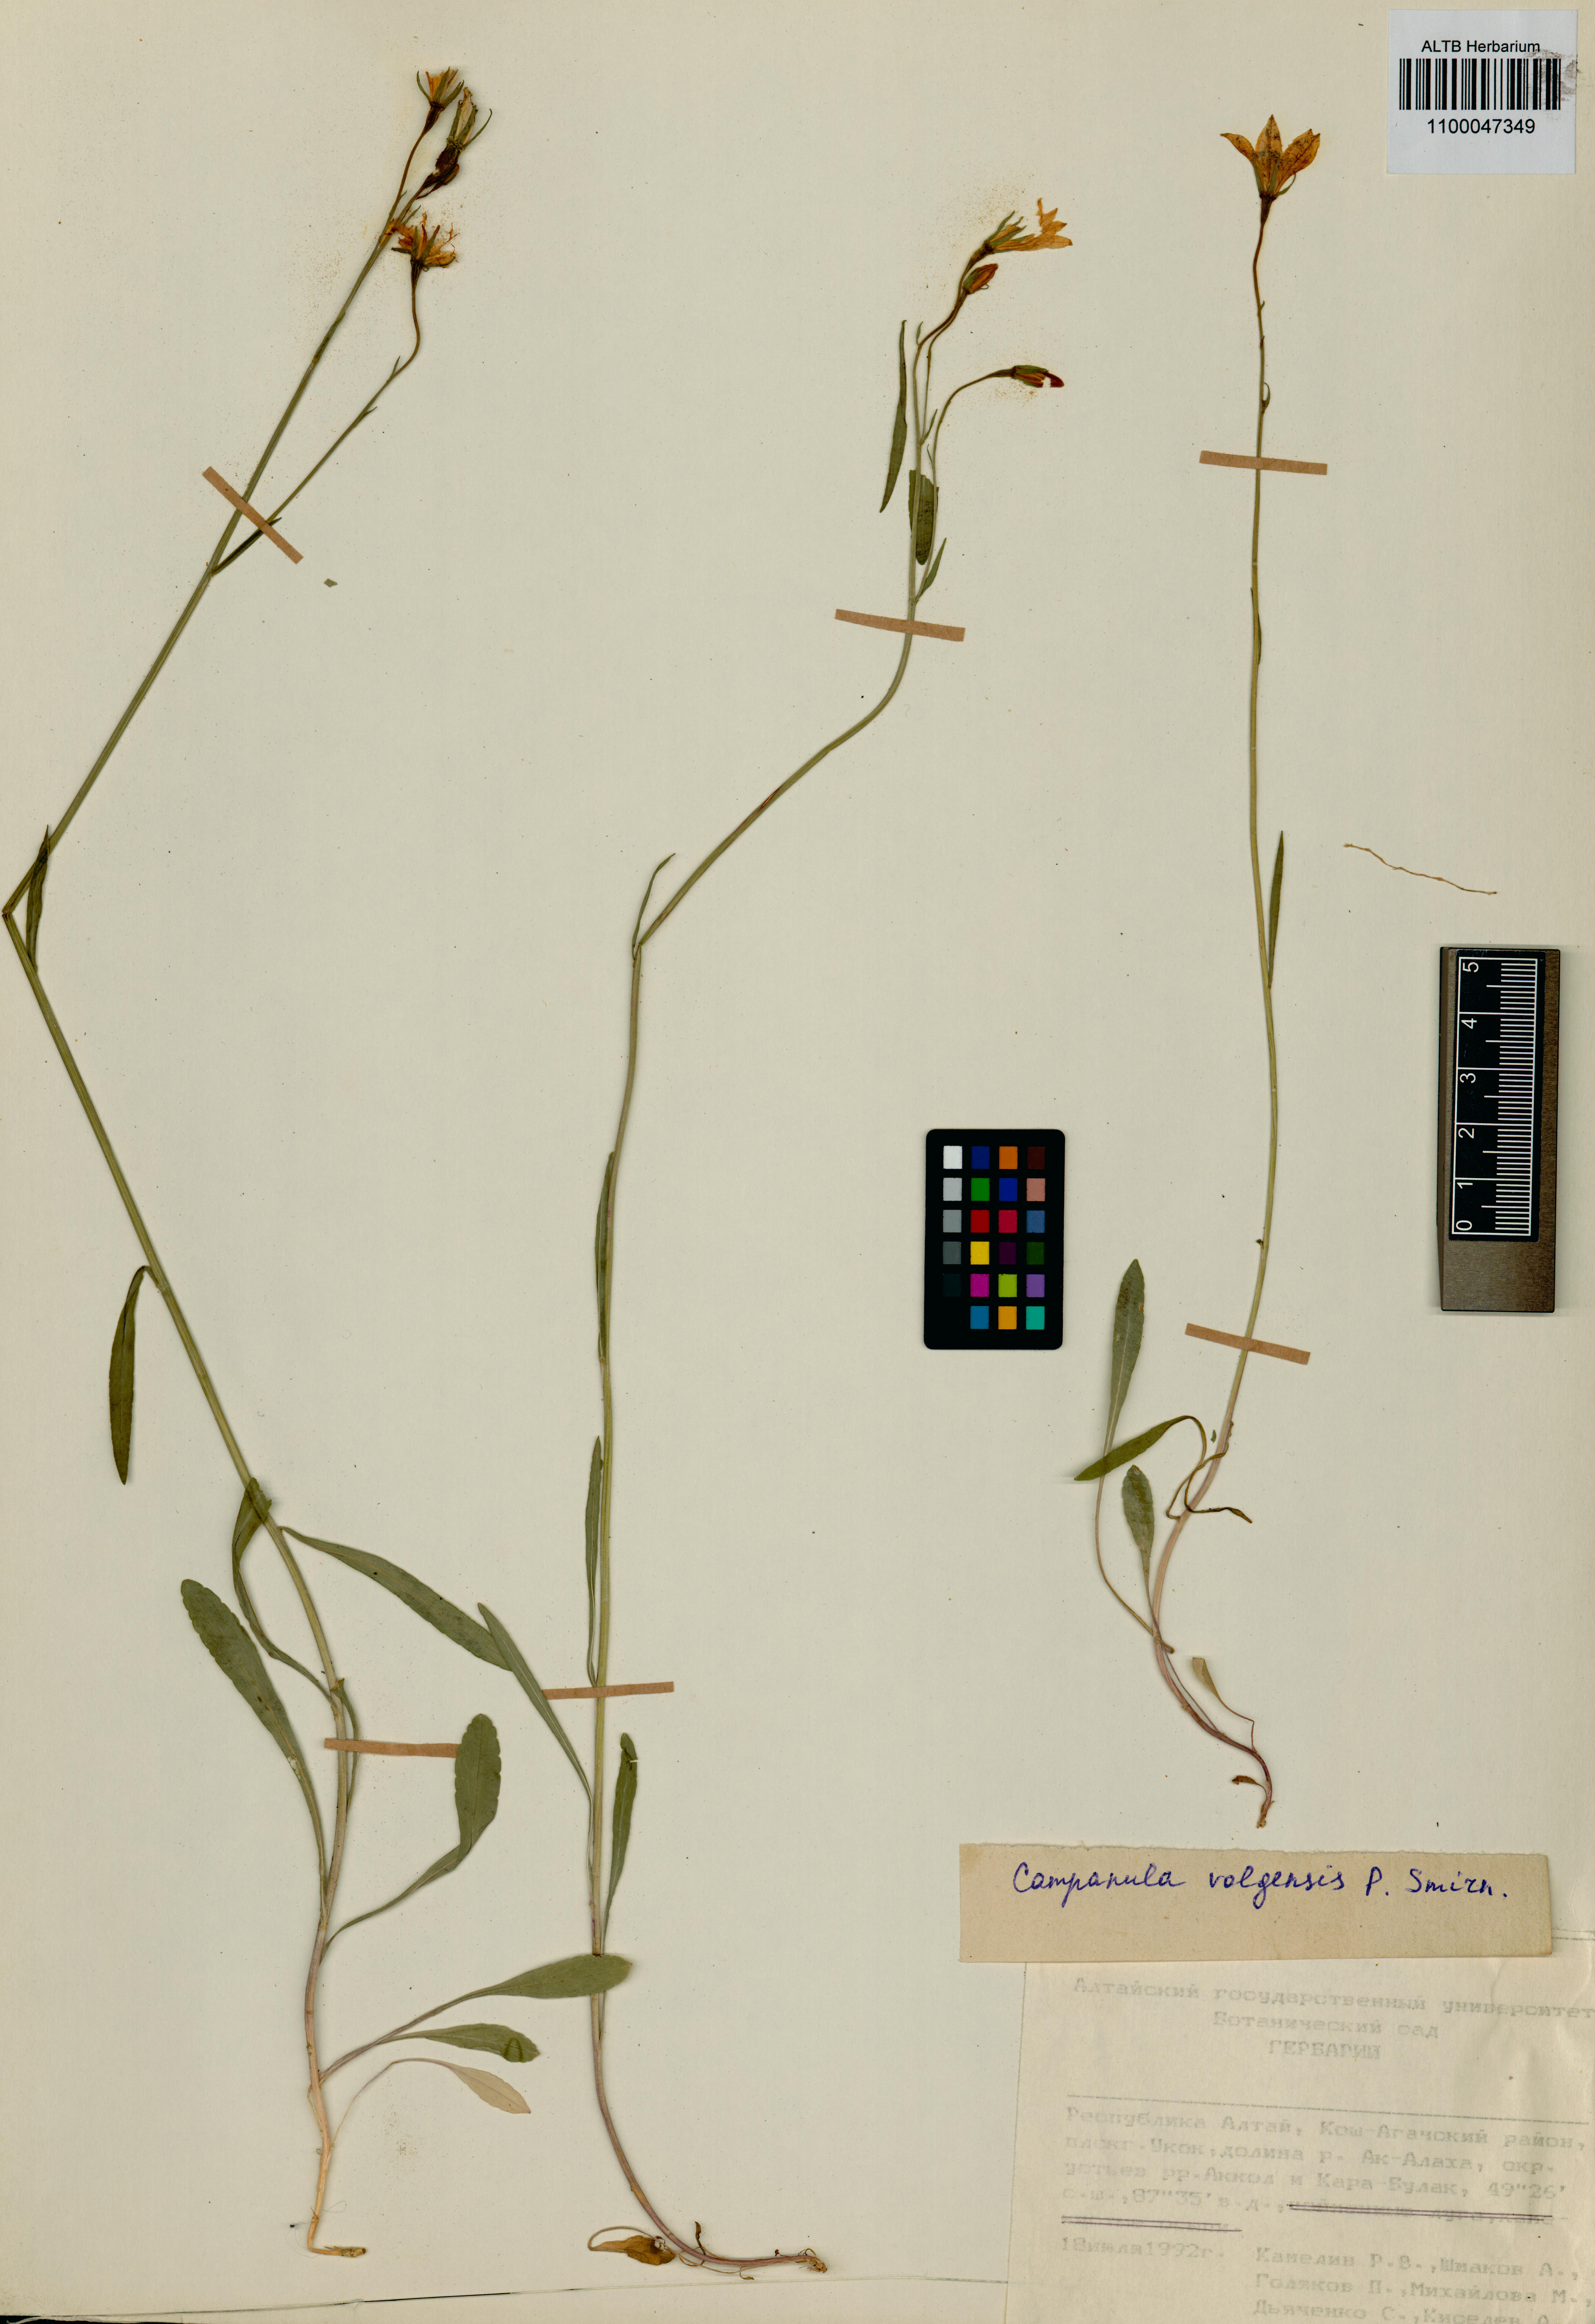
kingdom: Plantae
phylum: Tracheophyta
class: Magnoliopsida
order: Asterales
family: Campanulaceae
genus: Campanula
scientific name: Campanula stevenii
